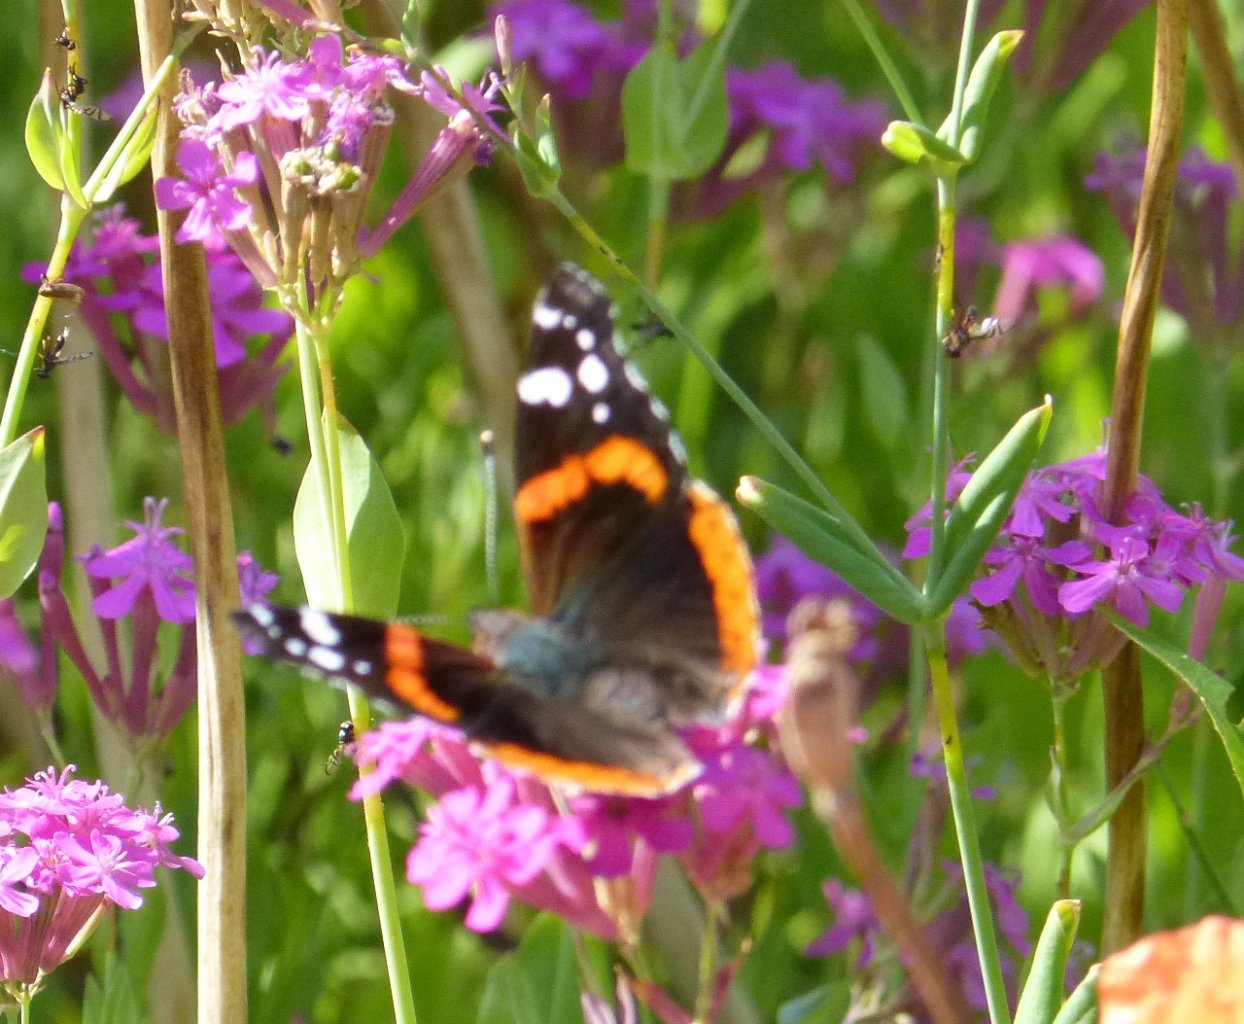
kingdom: Animalia
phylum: Arthropoda
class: Insecta
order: Lepidoptera
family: Nymphalidae
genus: Vanessa
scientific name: Vanessa atalanta
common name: Red Admiral
